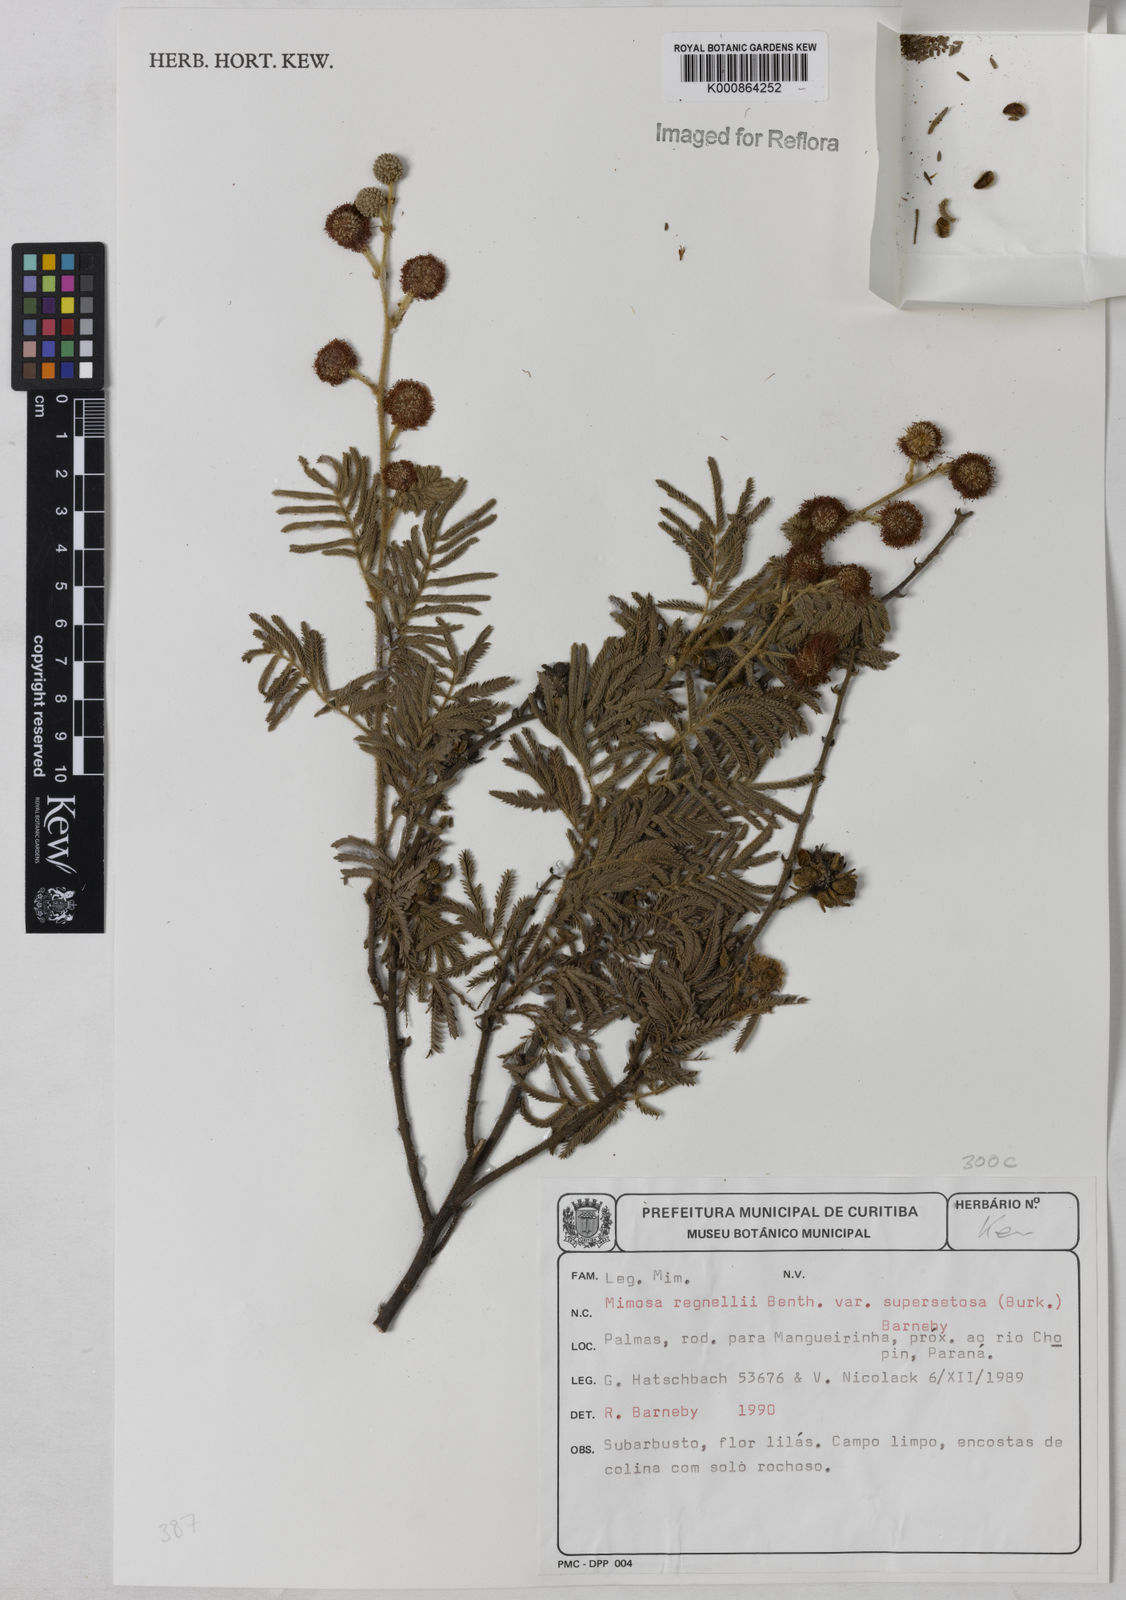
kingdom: Plantae
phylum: Tracheophyta
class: Magnoliopsida
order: Fabales
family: Fabaceae
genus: Mimosa
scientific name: Mimosa regnellii
